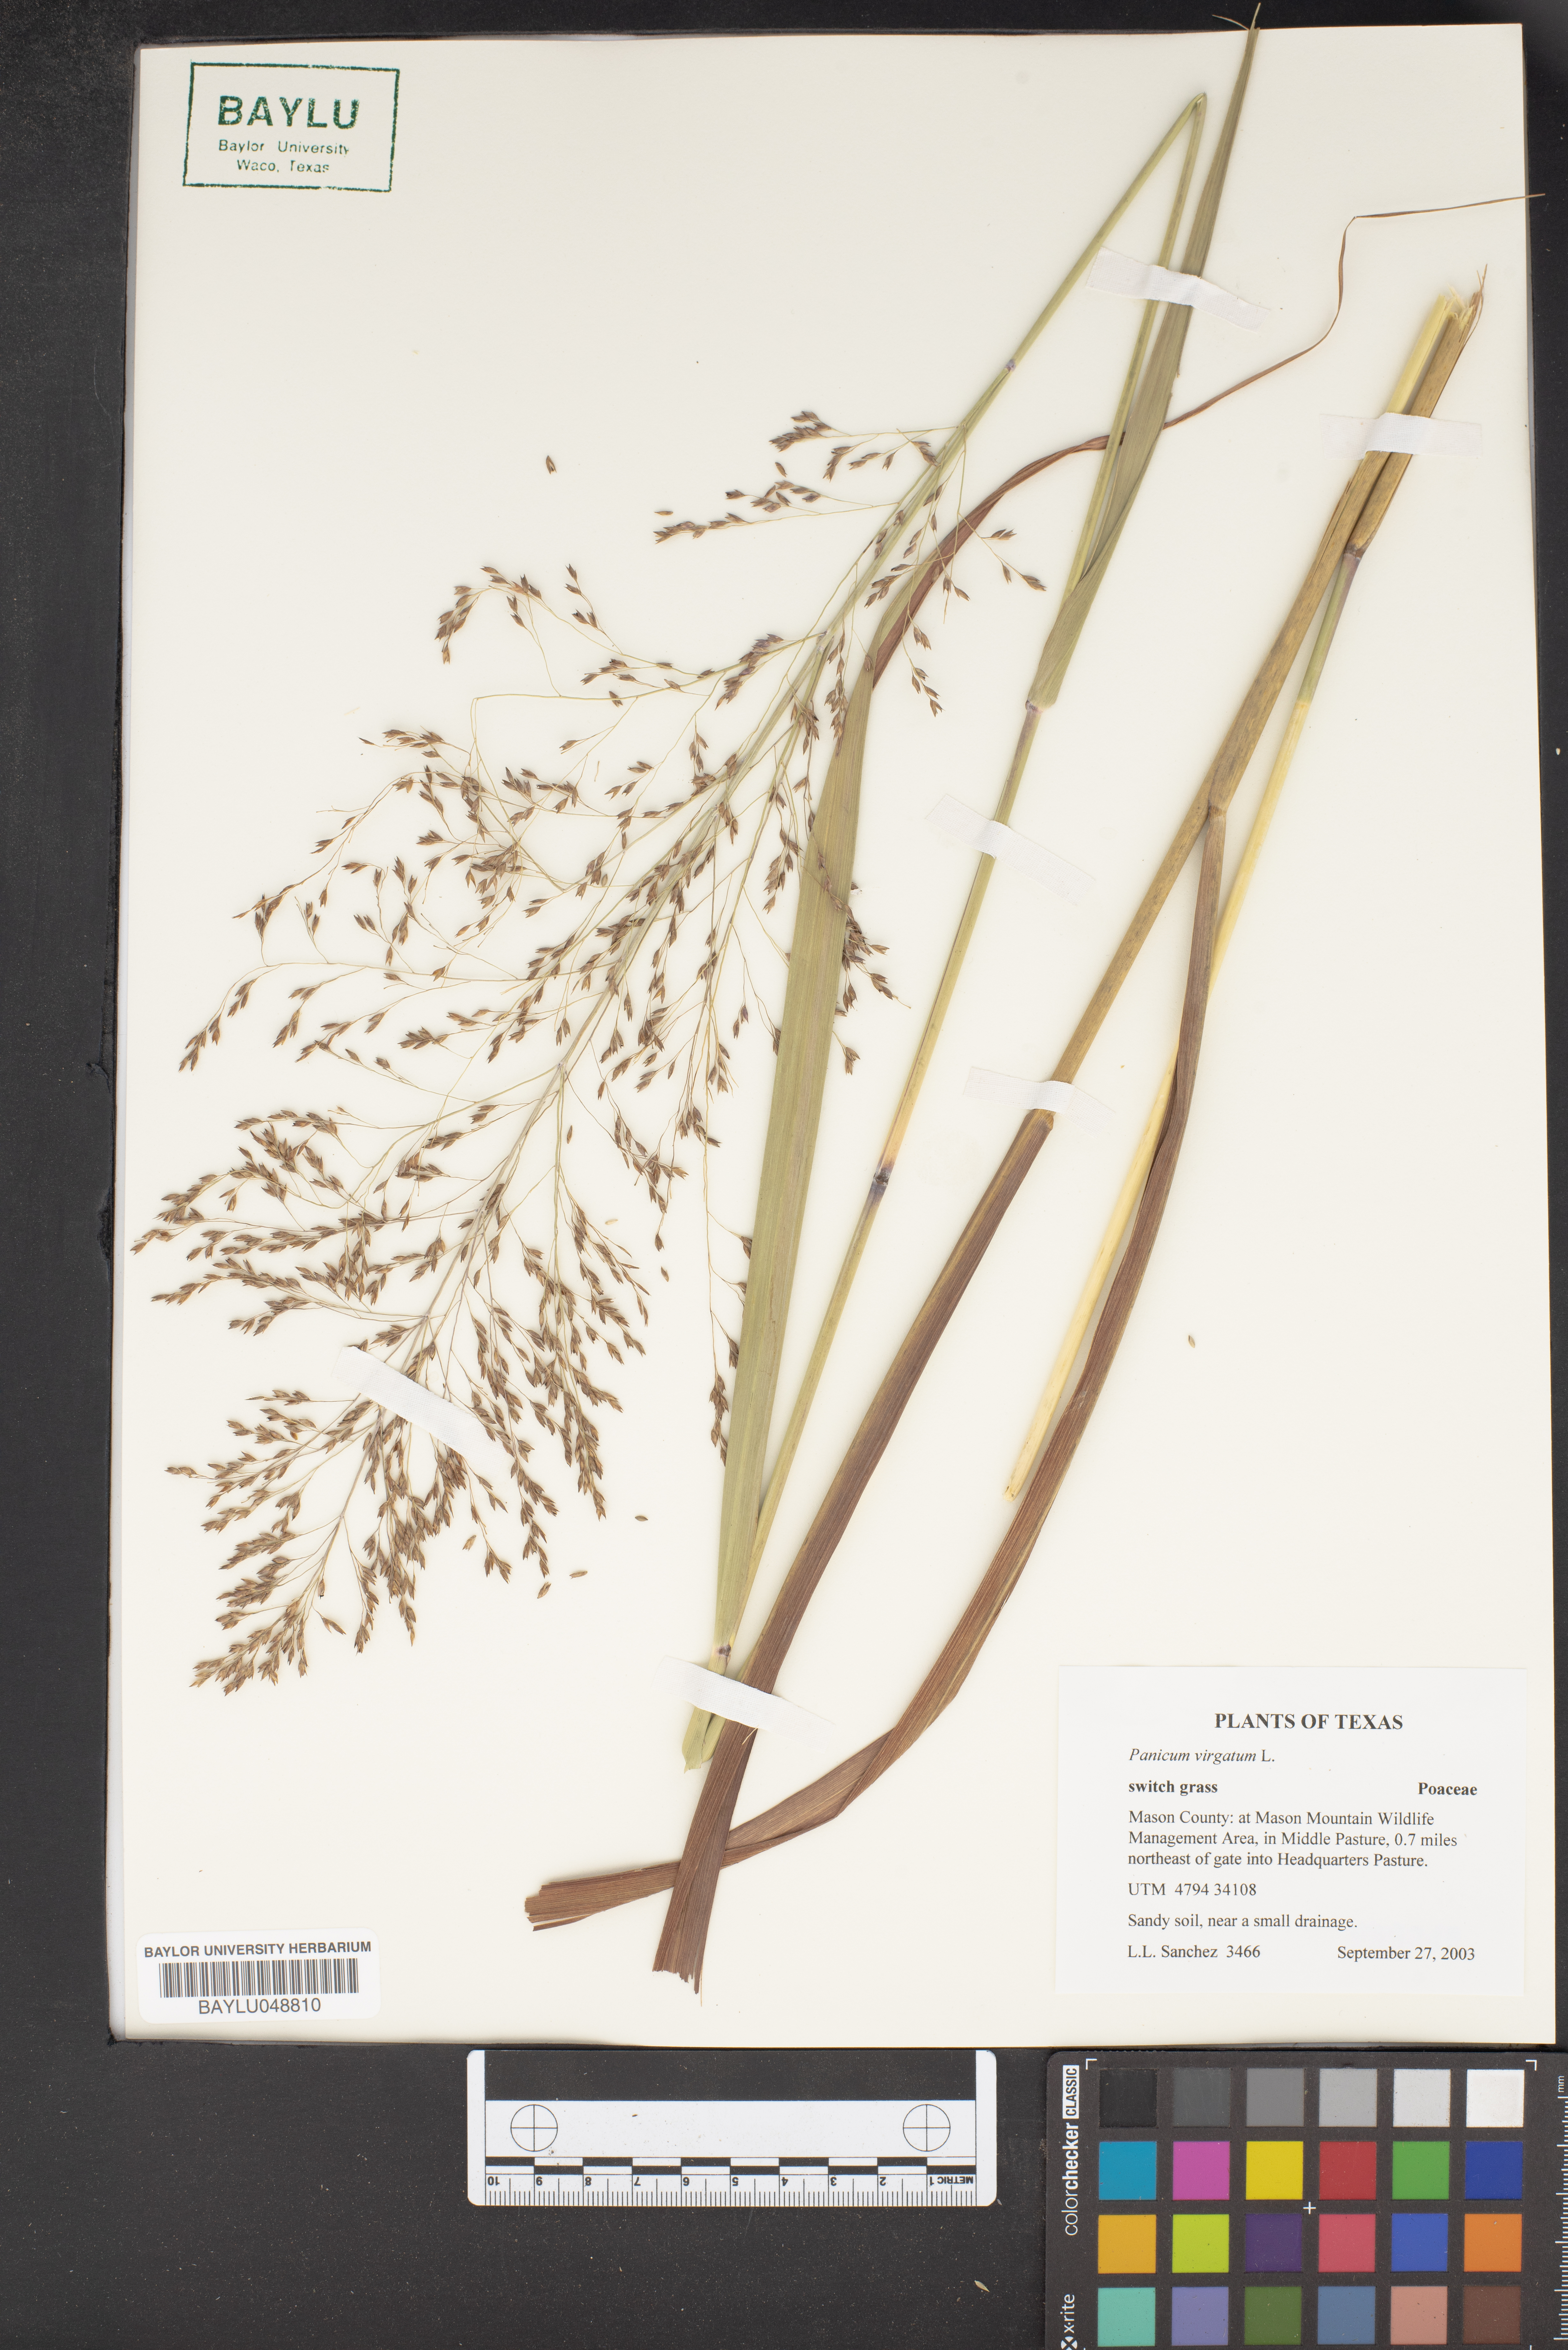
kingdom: Plantae
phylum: Tracheophyta
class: Liliopsida
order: Poales
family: Poaceae
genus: Panicum
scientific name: Panicum virgatum
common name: Switchgrass
